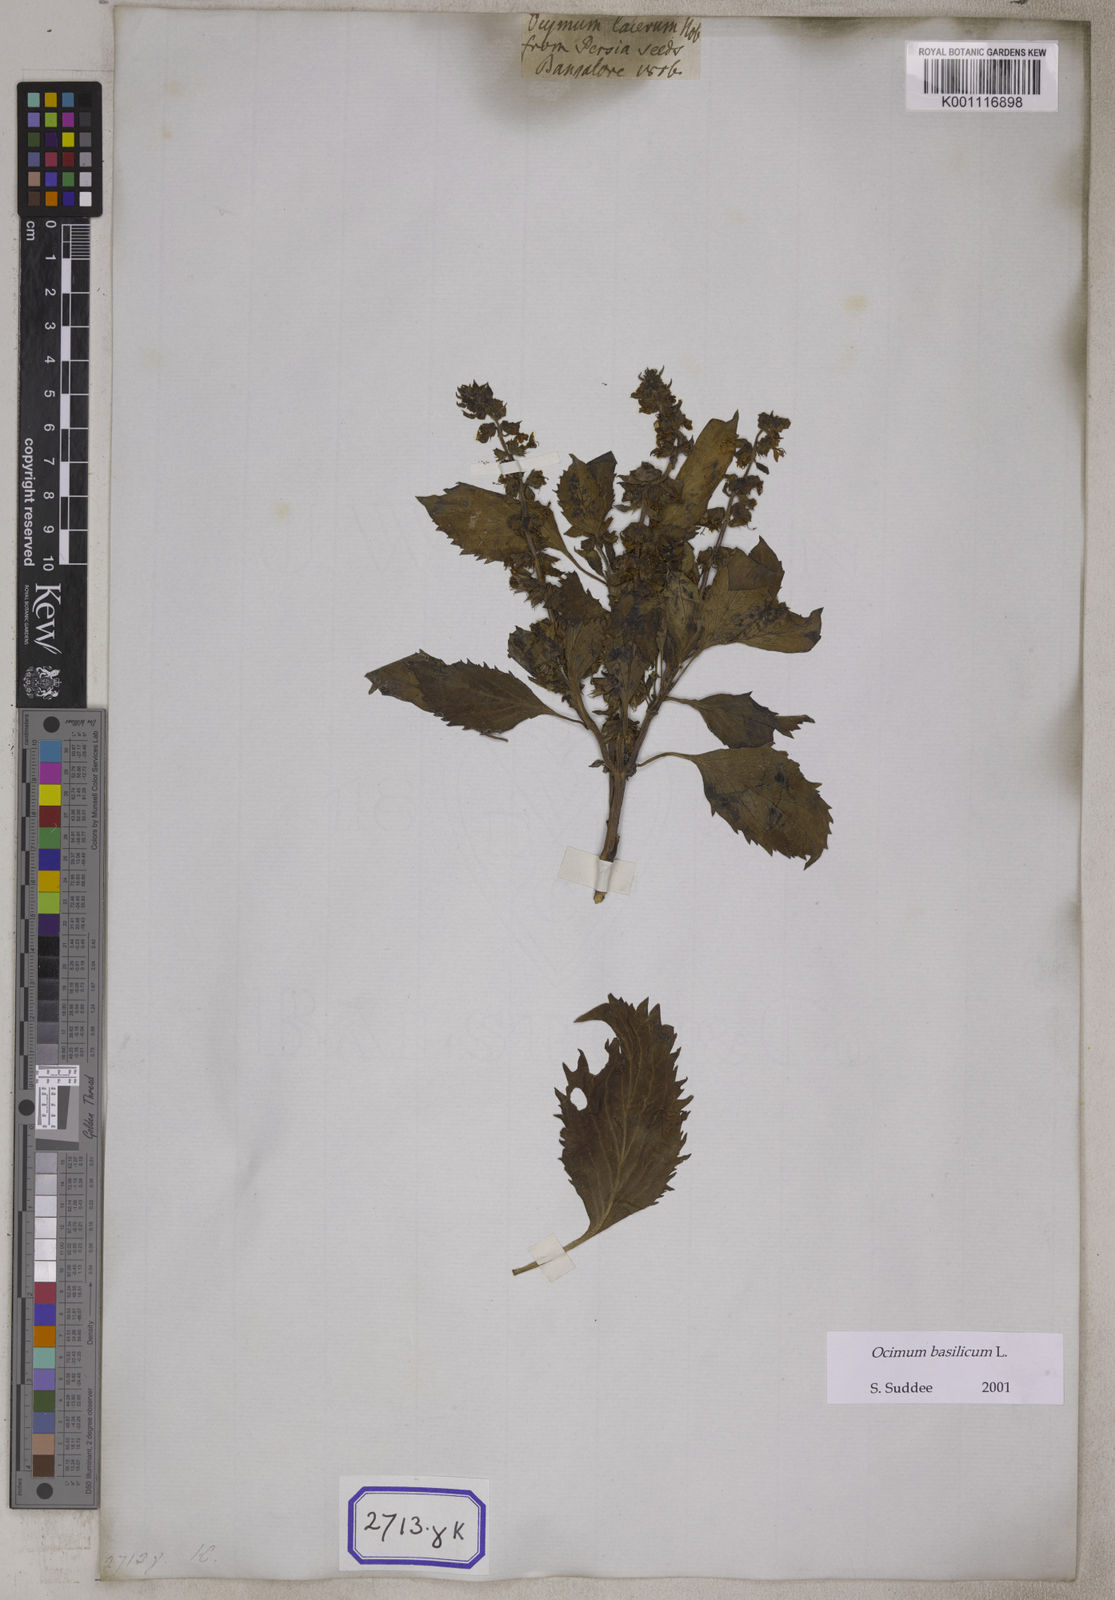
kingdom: Plantae
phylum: Tracheophyta
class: Magnoliopsida
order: Lamiales
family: Lamiaceae
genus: Ocimum
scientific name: Ocimum
